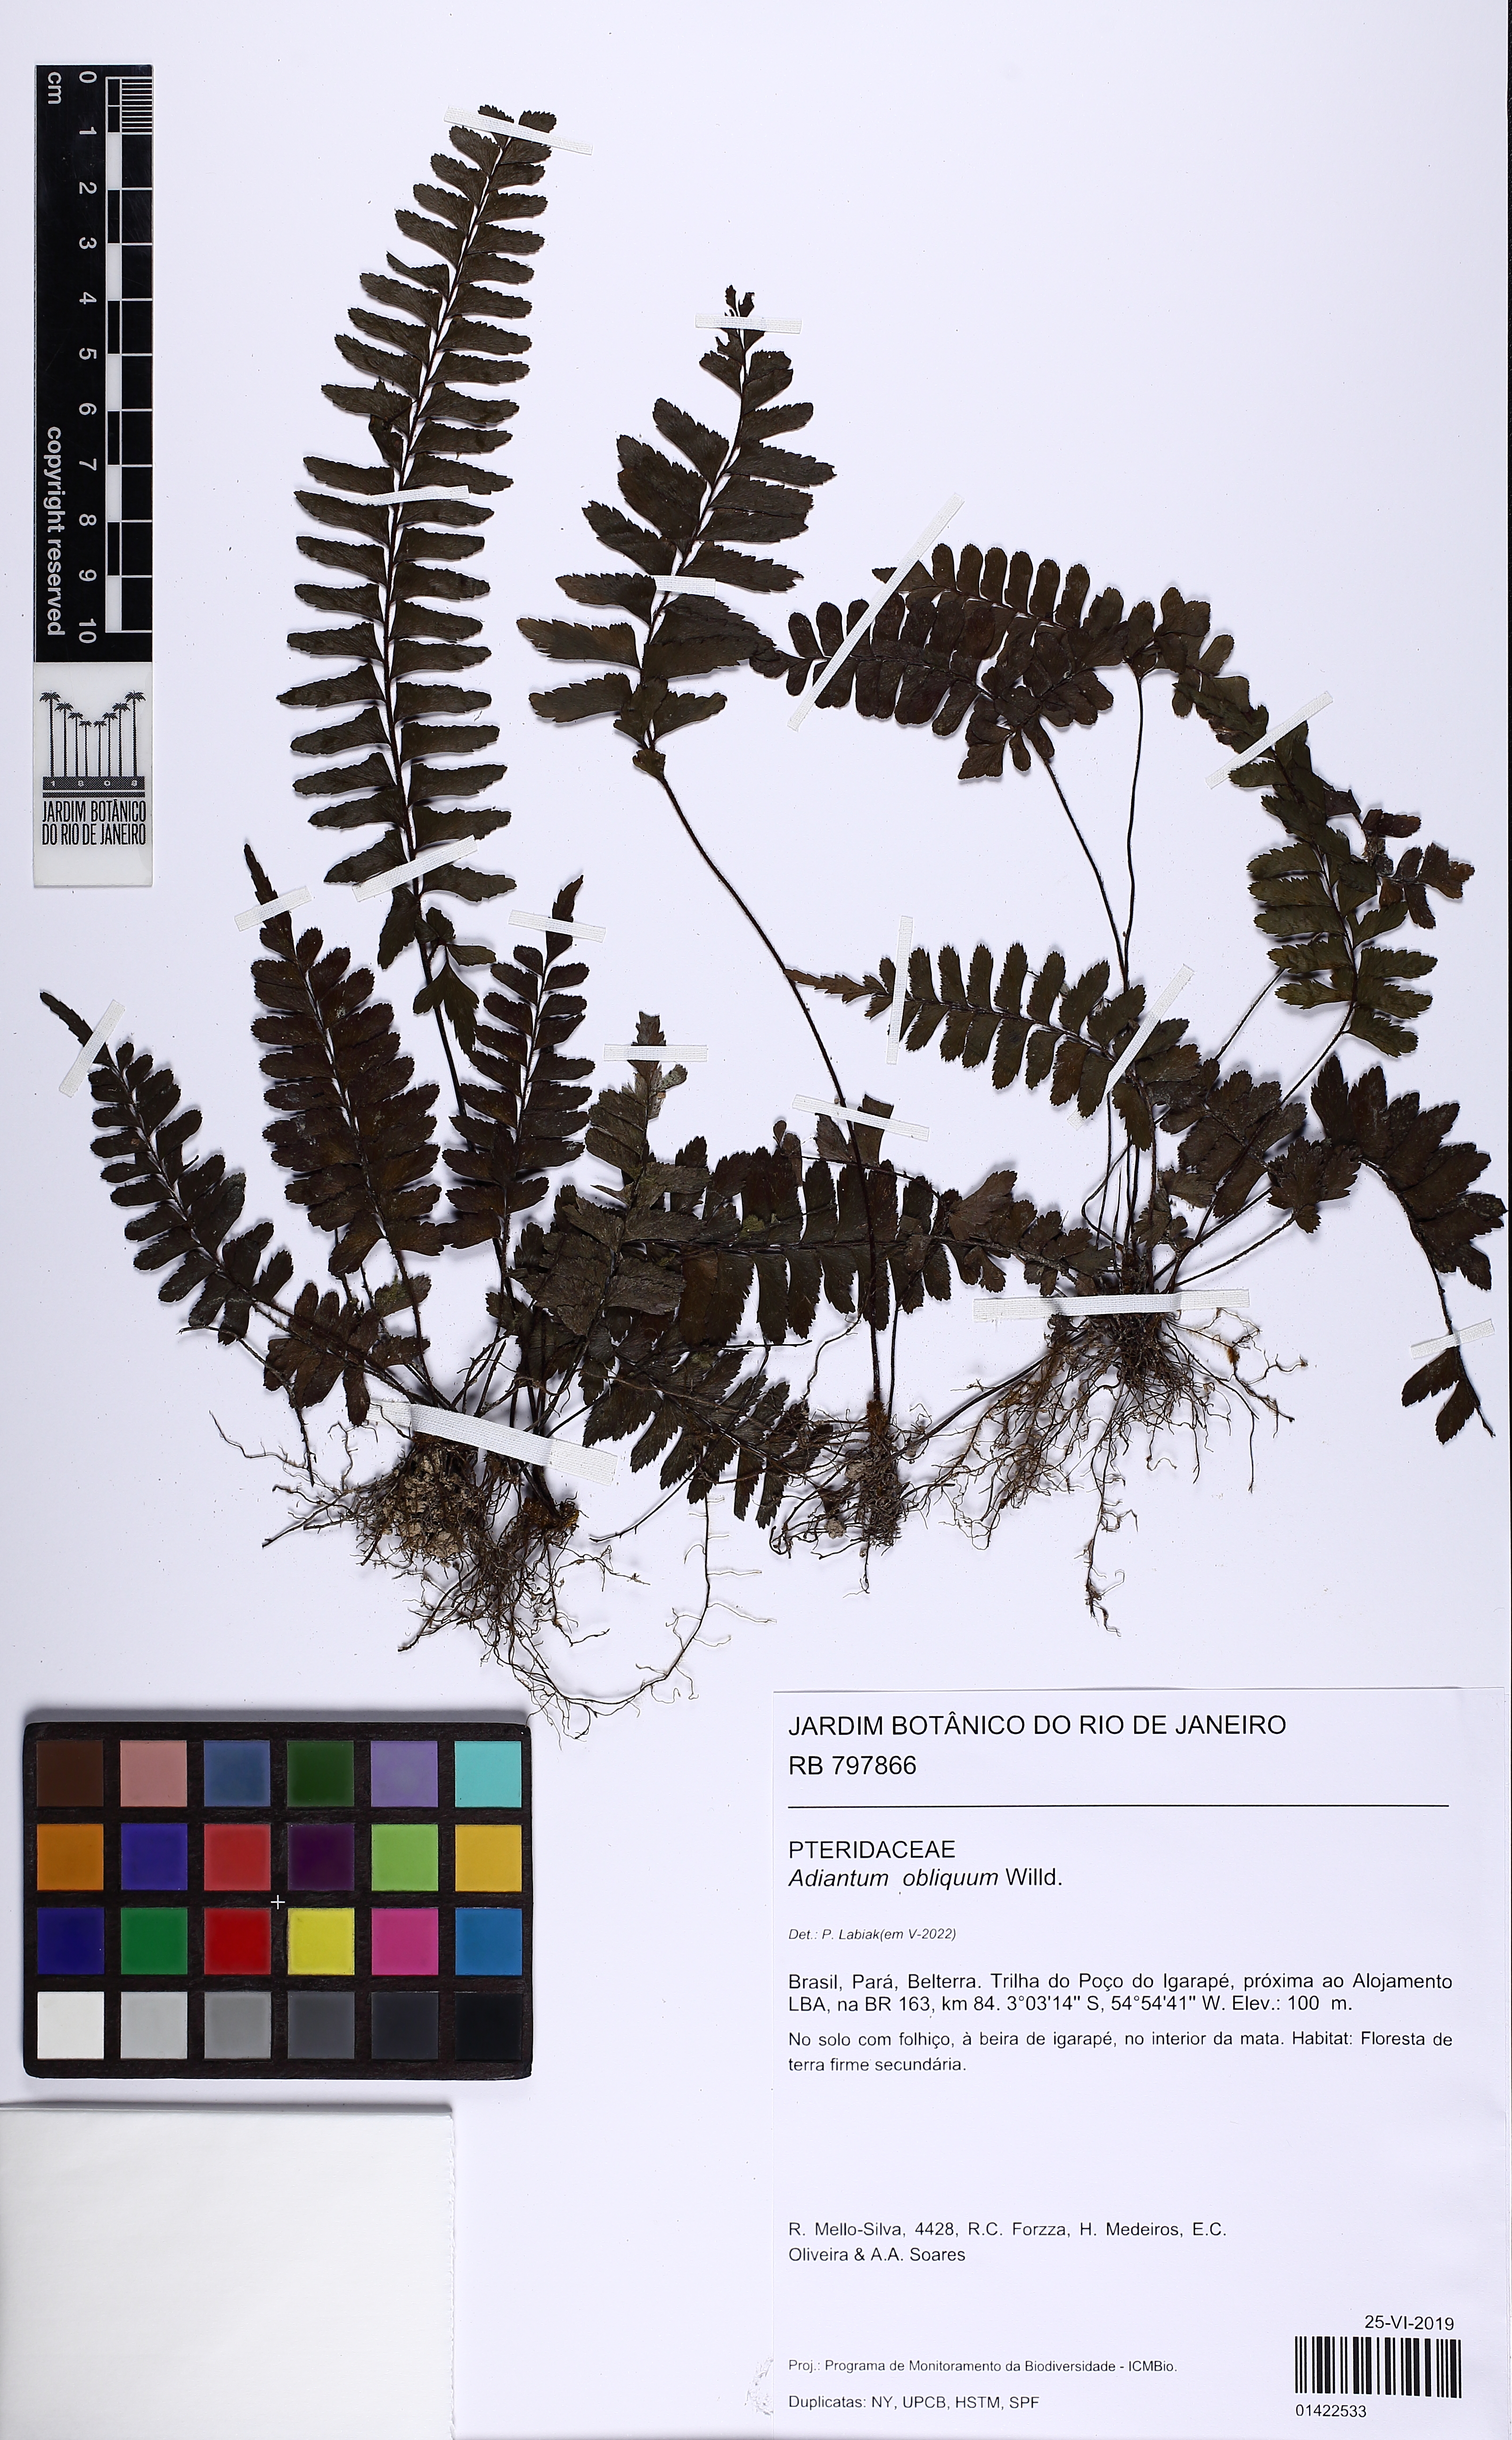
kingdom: Plantae
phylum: Tracheophyta
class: Polypodiopsida
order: Polypodiales
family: Pteridaceae
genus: Adiantum
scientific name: Adiantum obliquum
